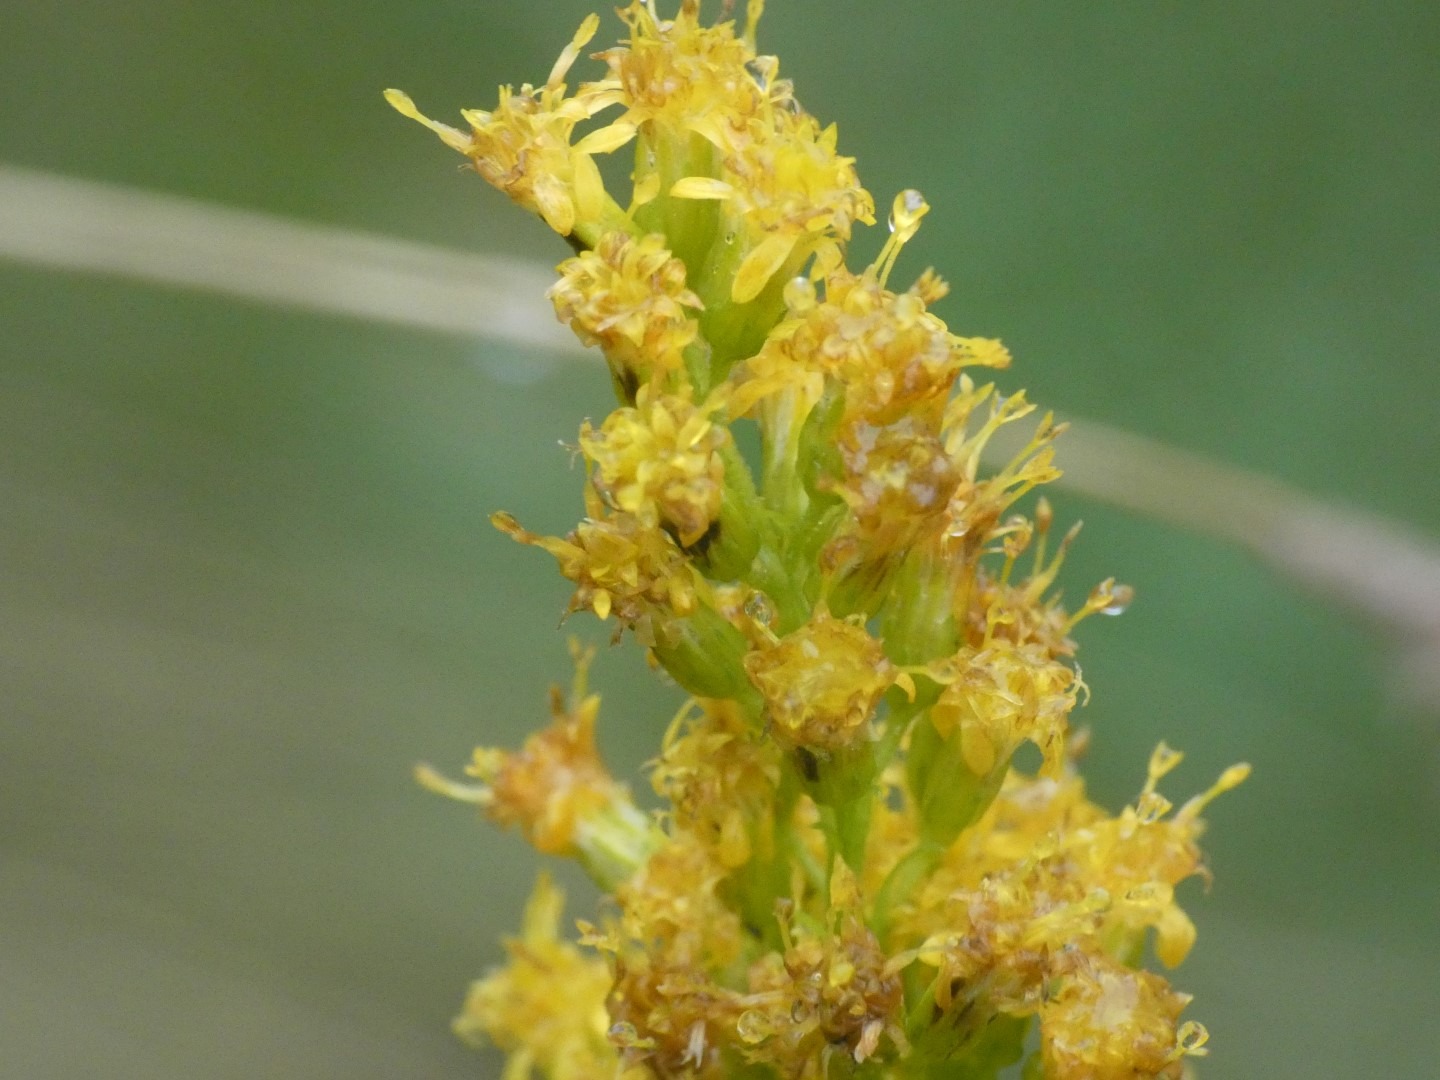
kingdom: Plantae
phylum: Tracheophyta
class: Magnoliopsida
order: Asterales
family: Asteraceae
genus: Solidago
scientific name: Solidago gigantea
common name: Sildig gyldenris
